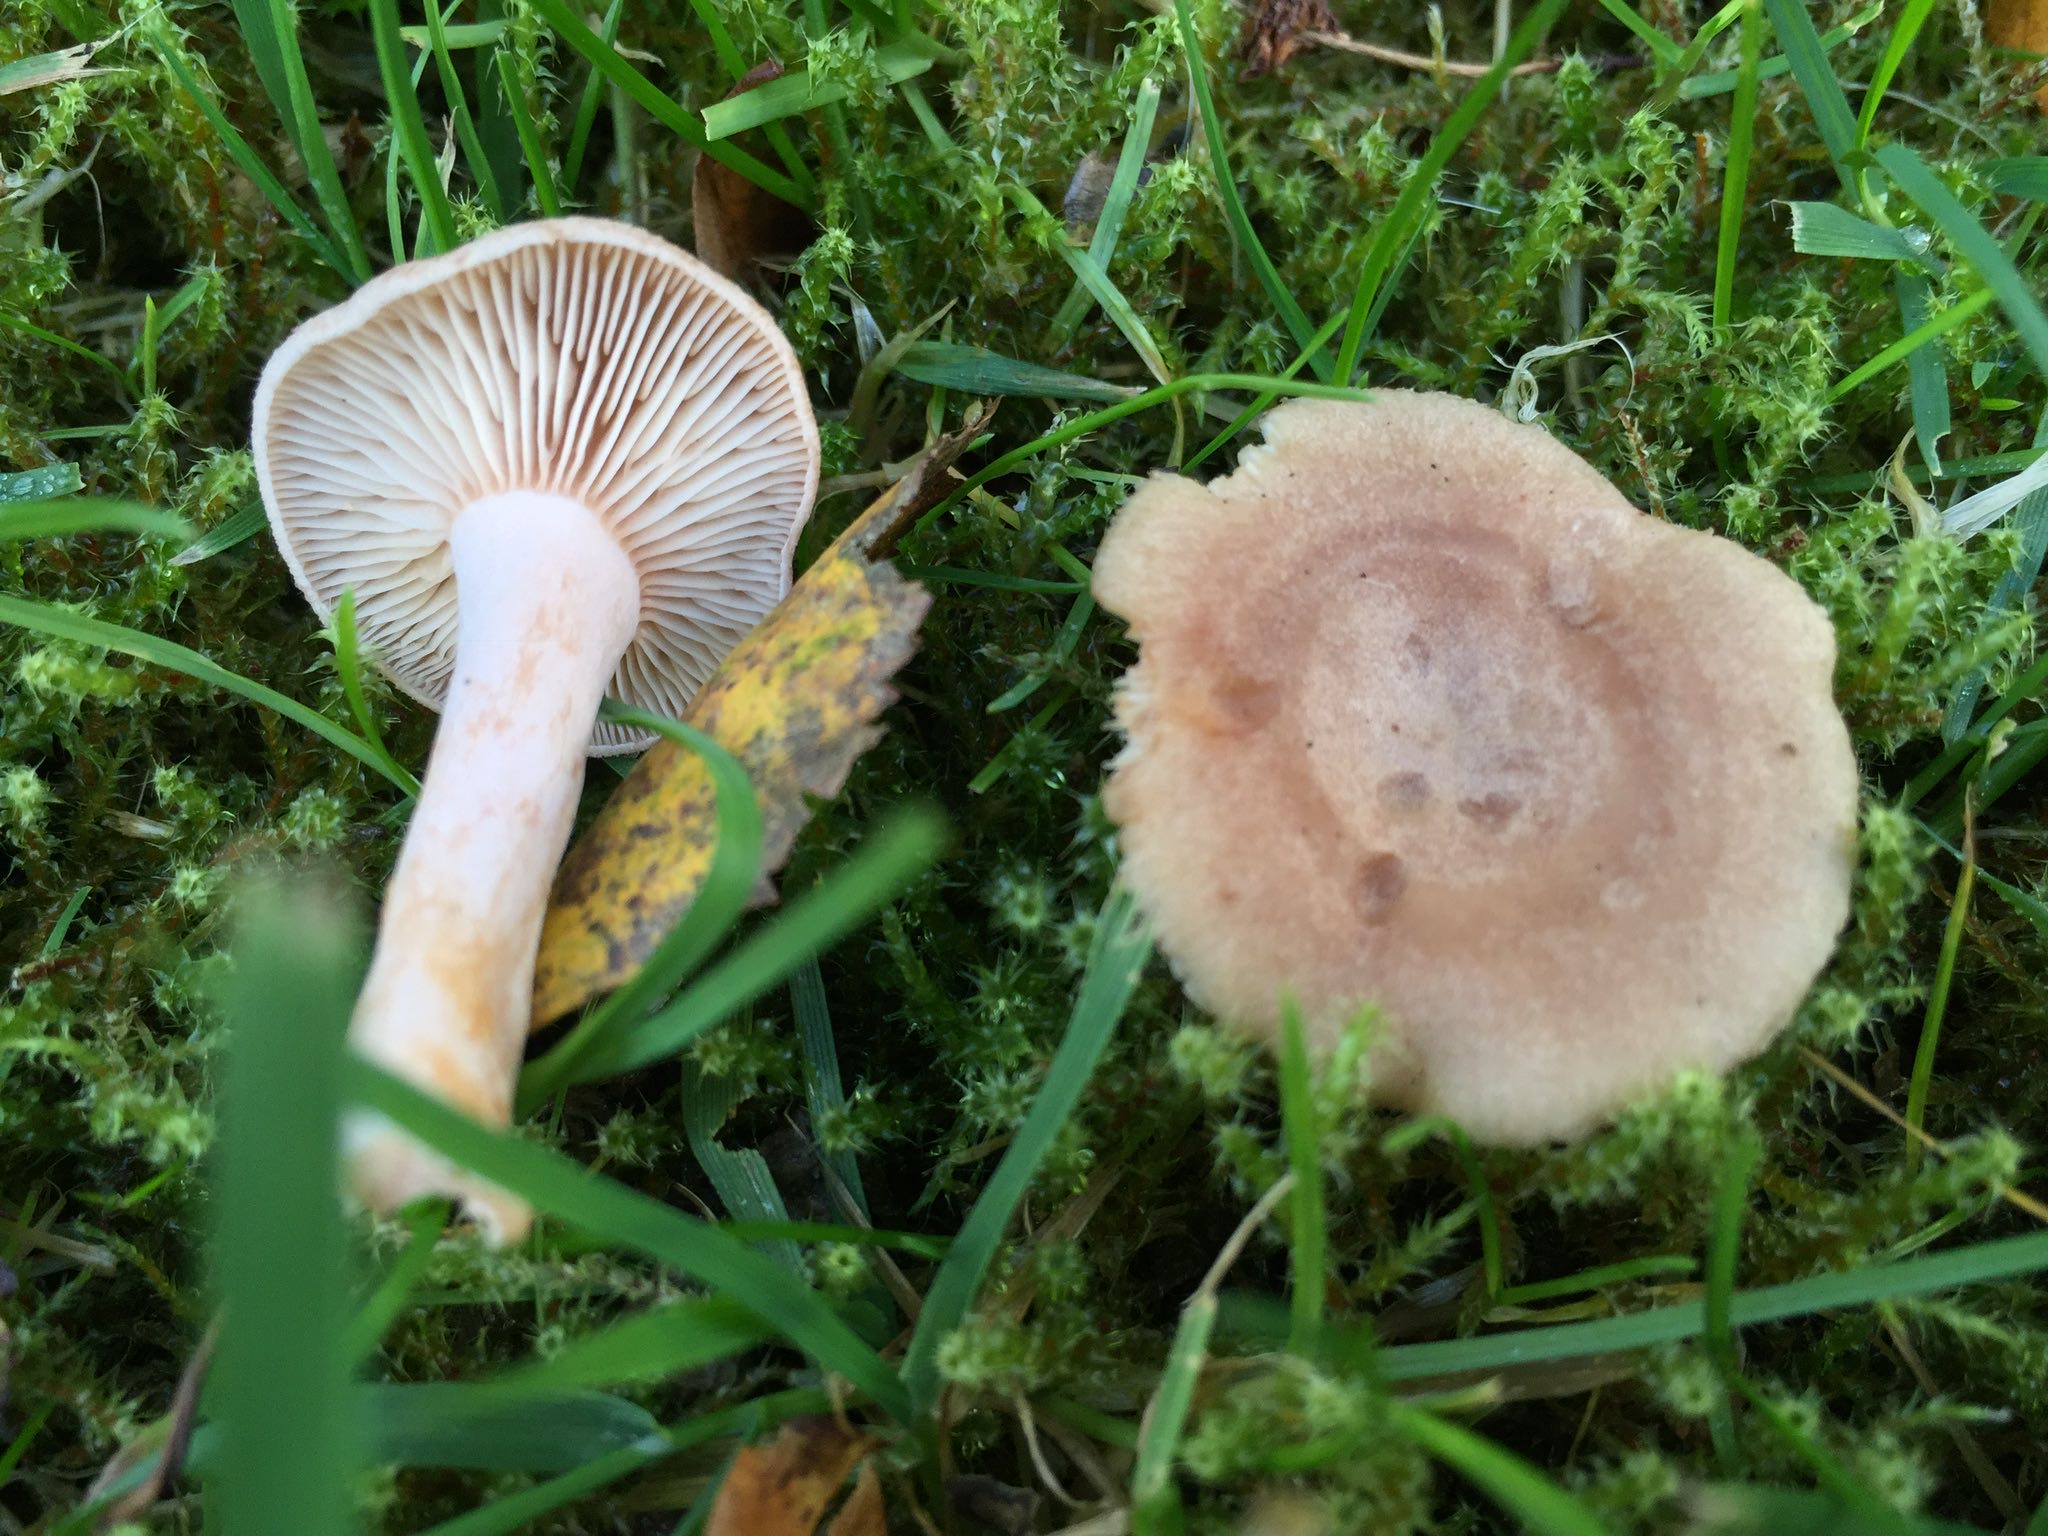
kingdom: Fungi
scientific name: Fungi
